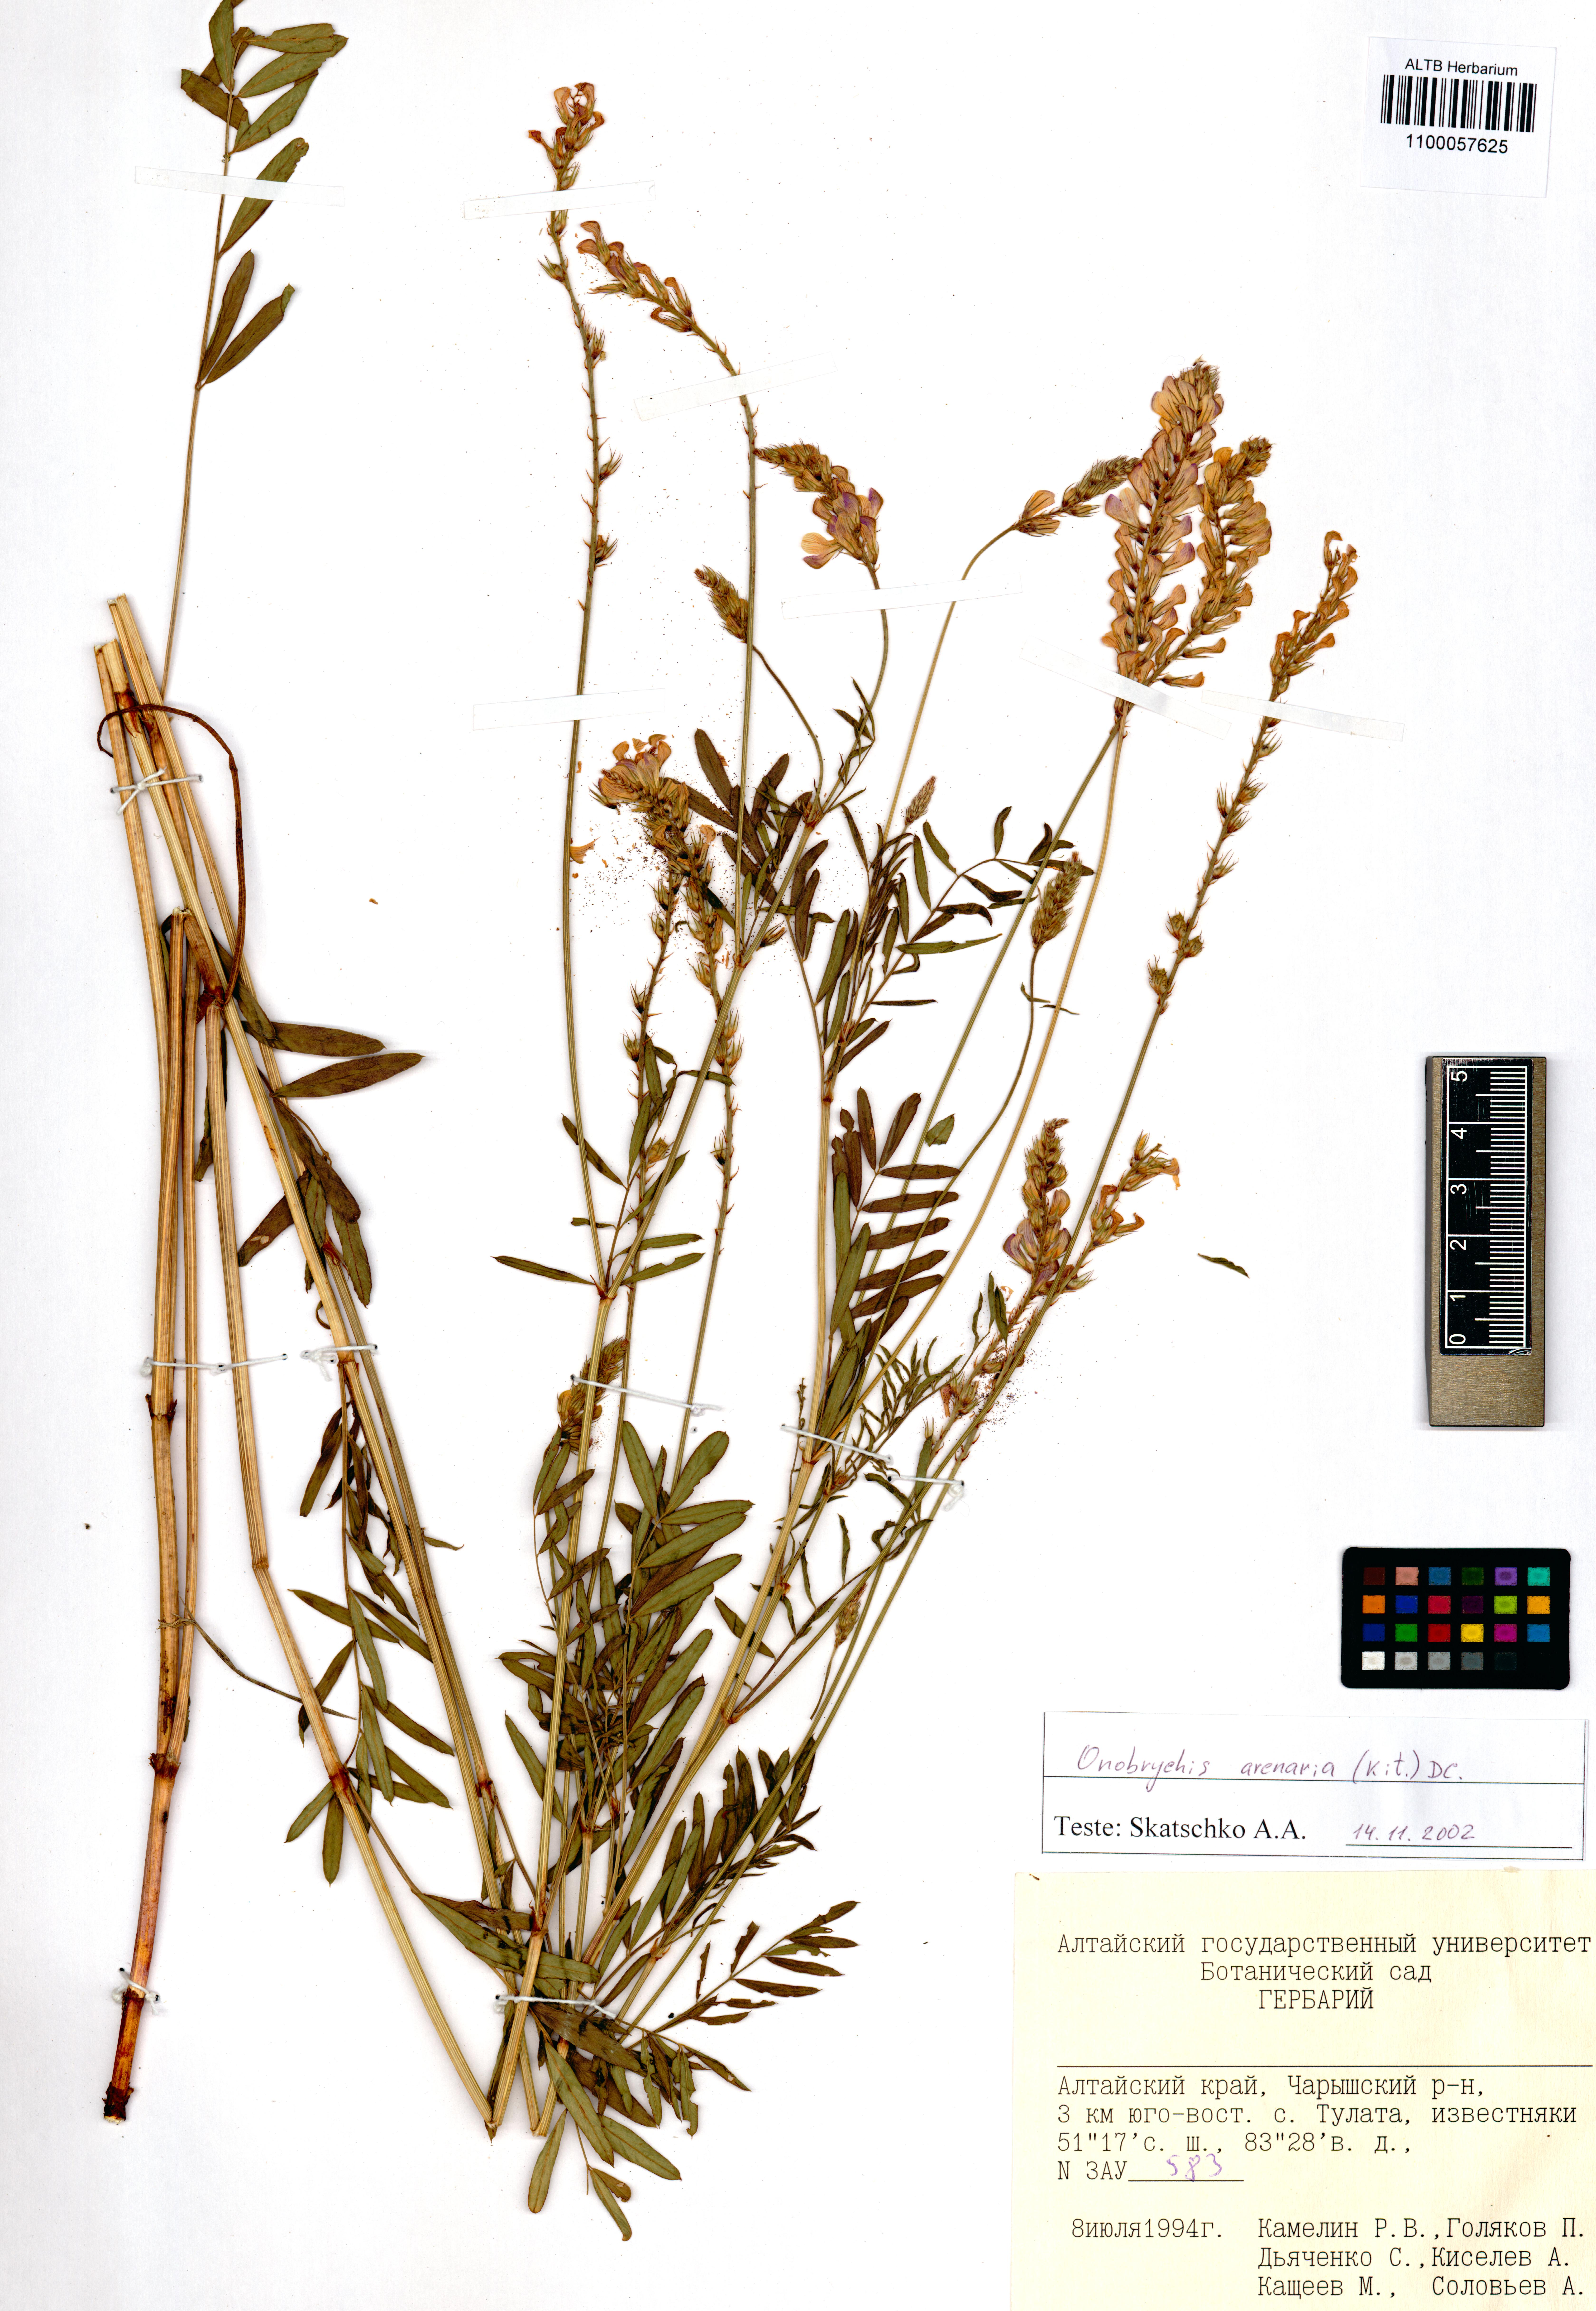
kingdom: Plantae
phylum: Tracheophyta
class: Magnoliopsida
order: Fabales
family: Fabaceae
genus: Onobrychis
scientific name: Onobrychis arenaria
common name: Sand esparcet
